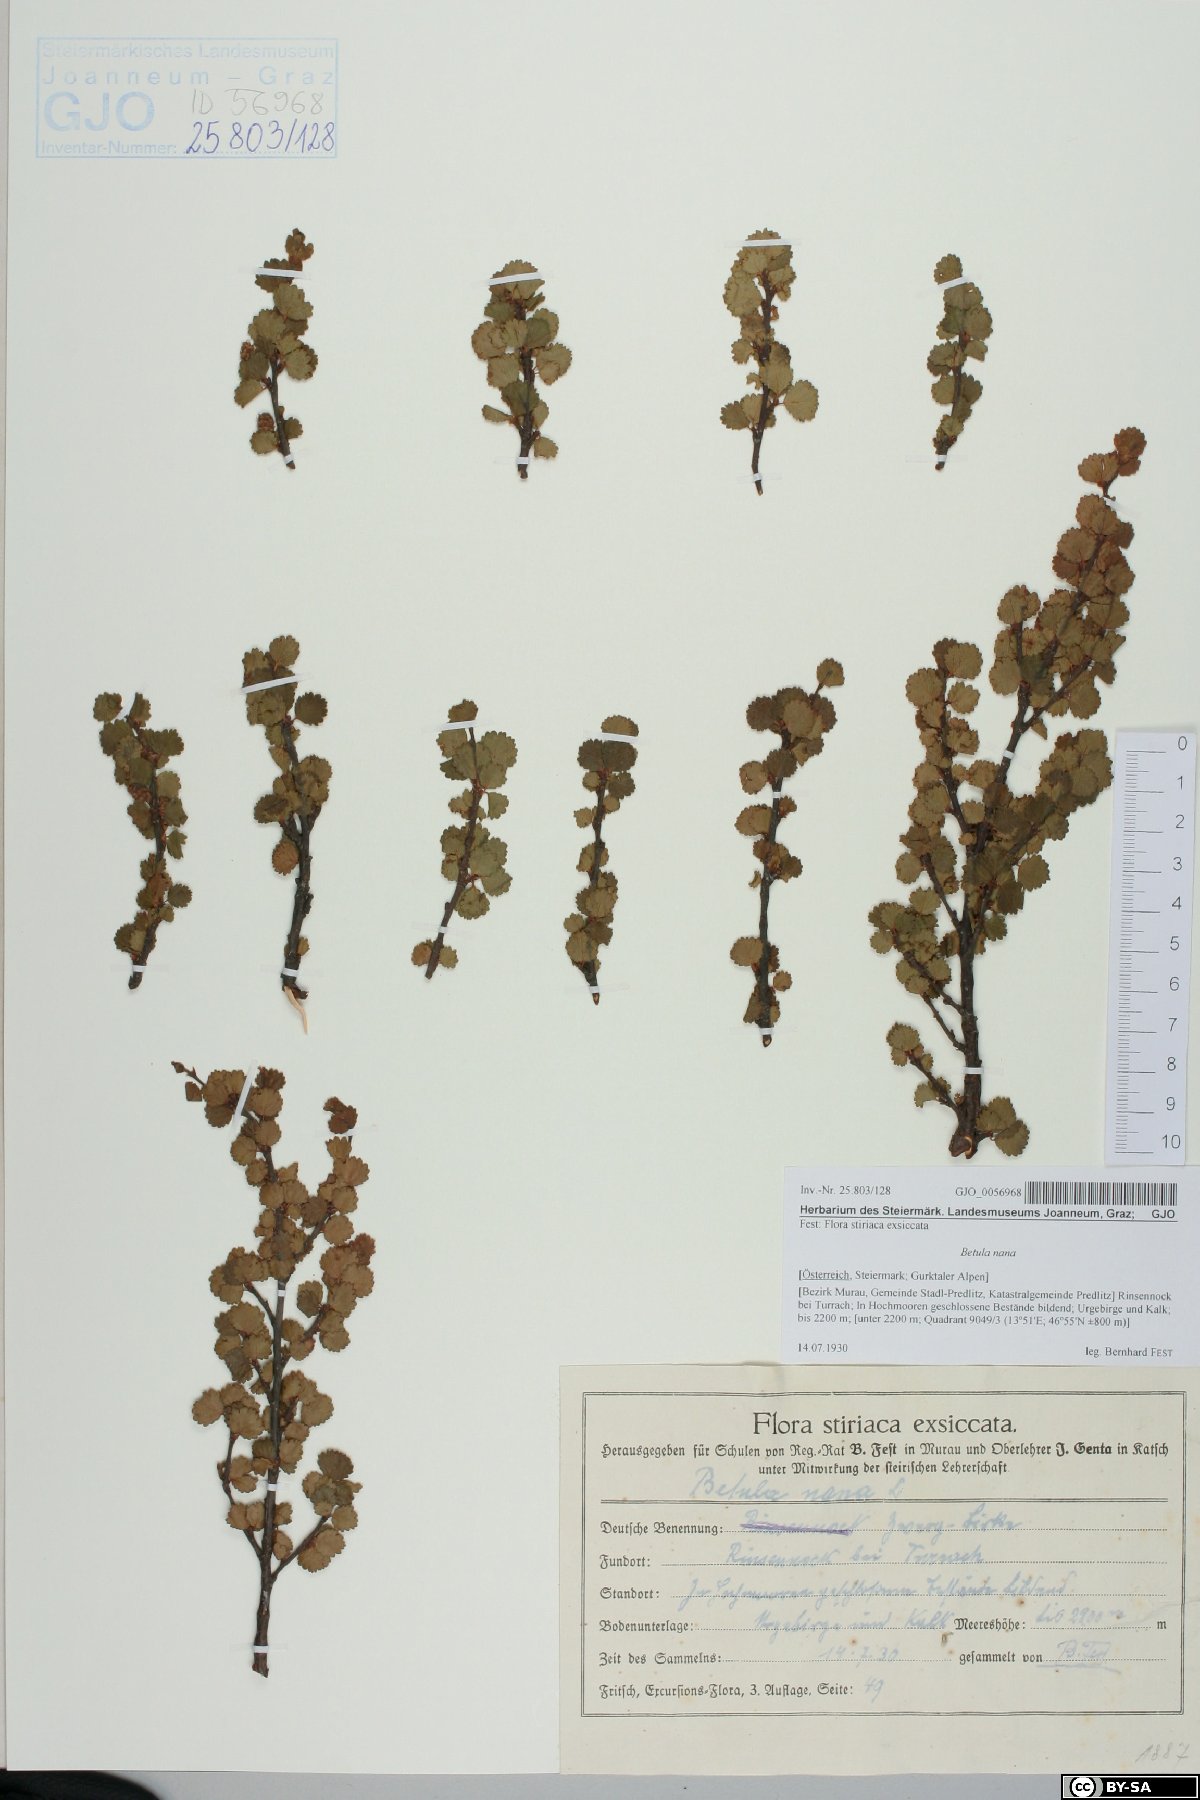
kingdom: Plantae
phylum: Tracheophyta
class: Magnoliopsida
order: Fagales
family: Betulaceae
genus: Betula
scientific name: Betula nana
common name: Arctic dwarf birch
